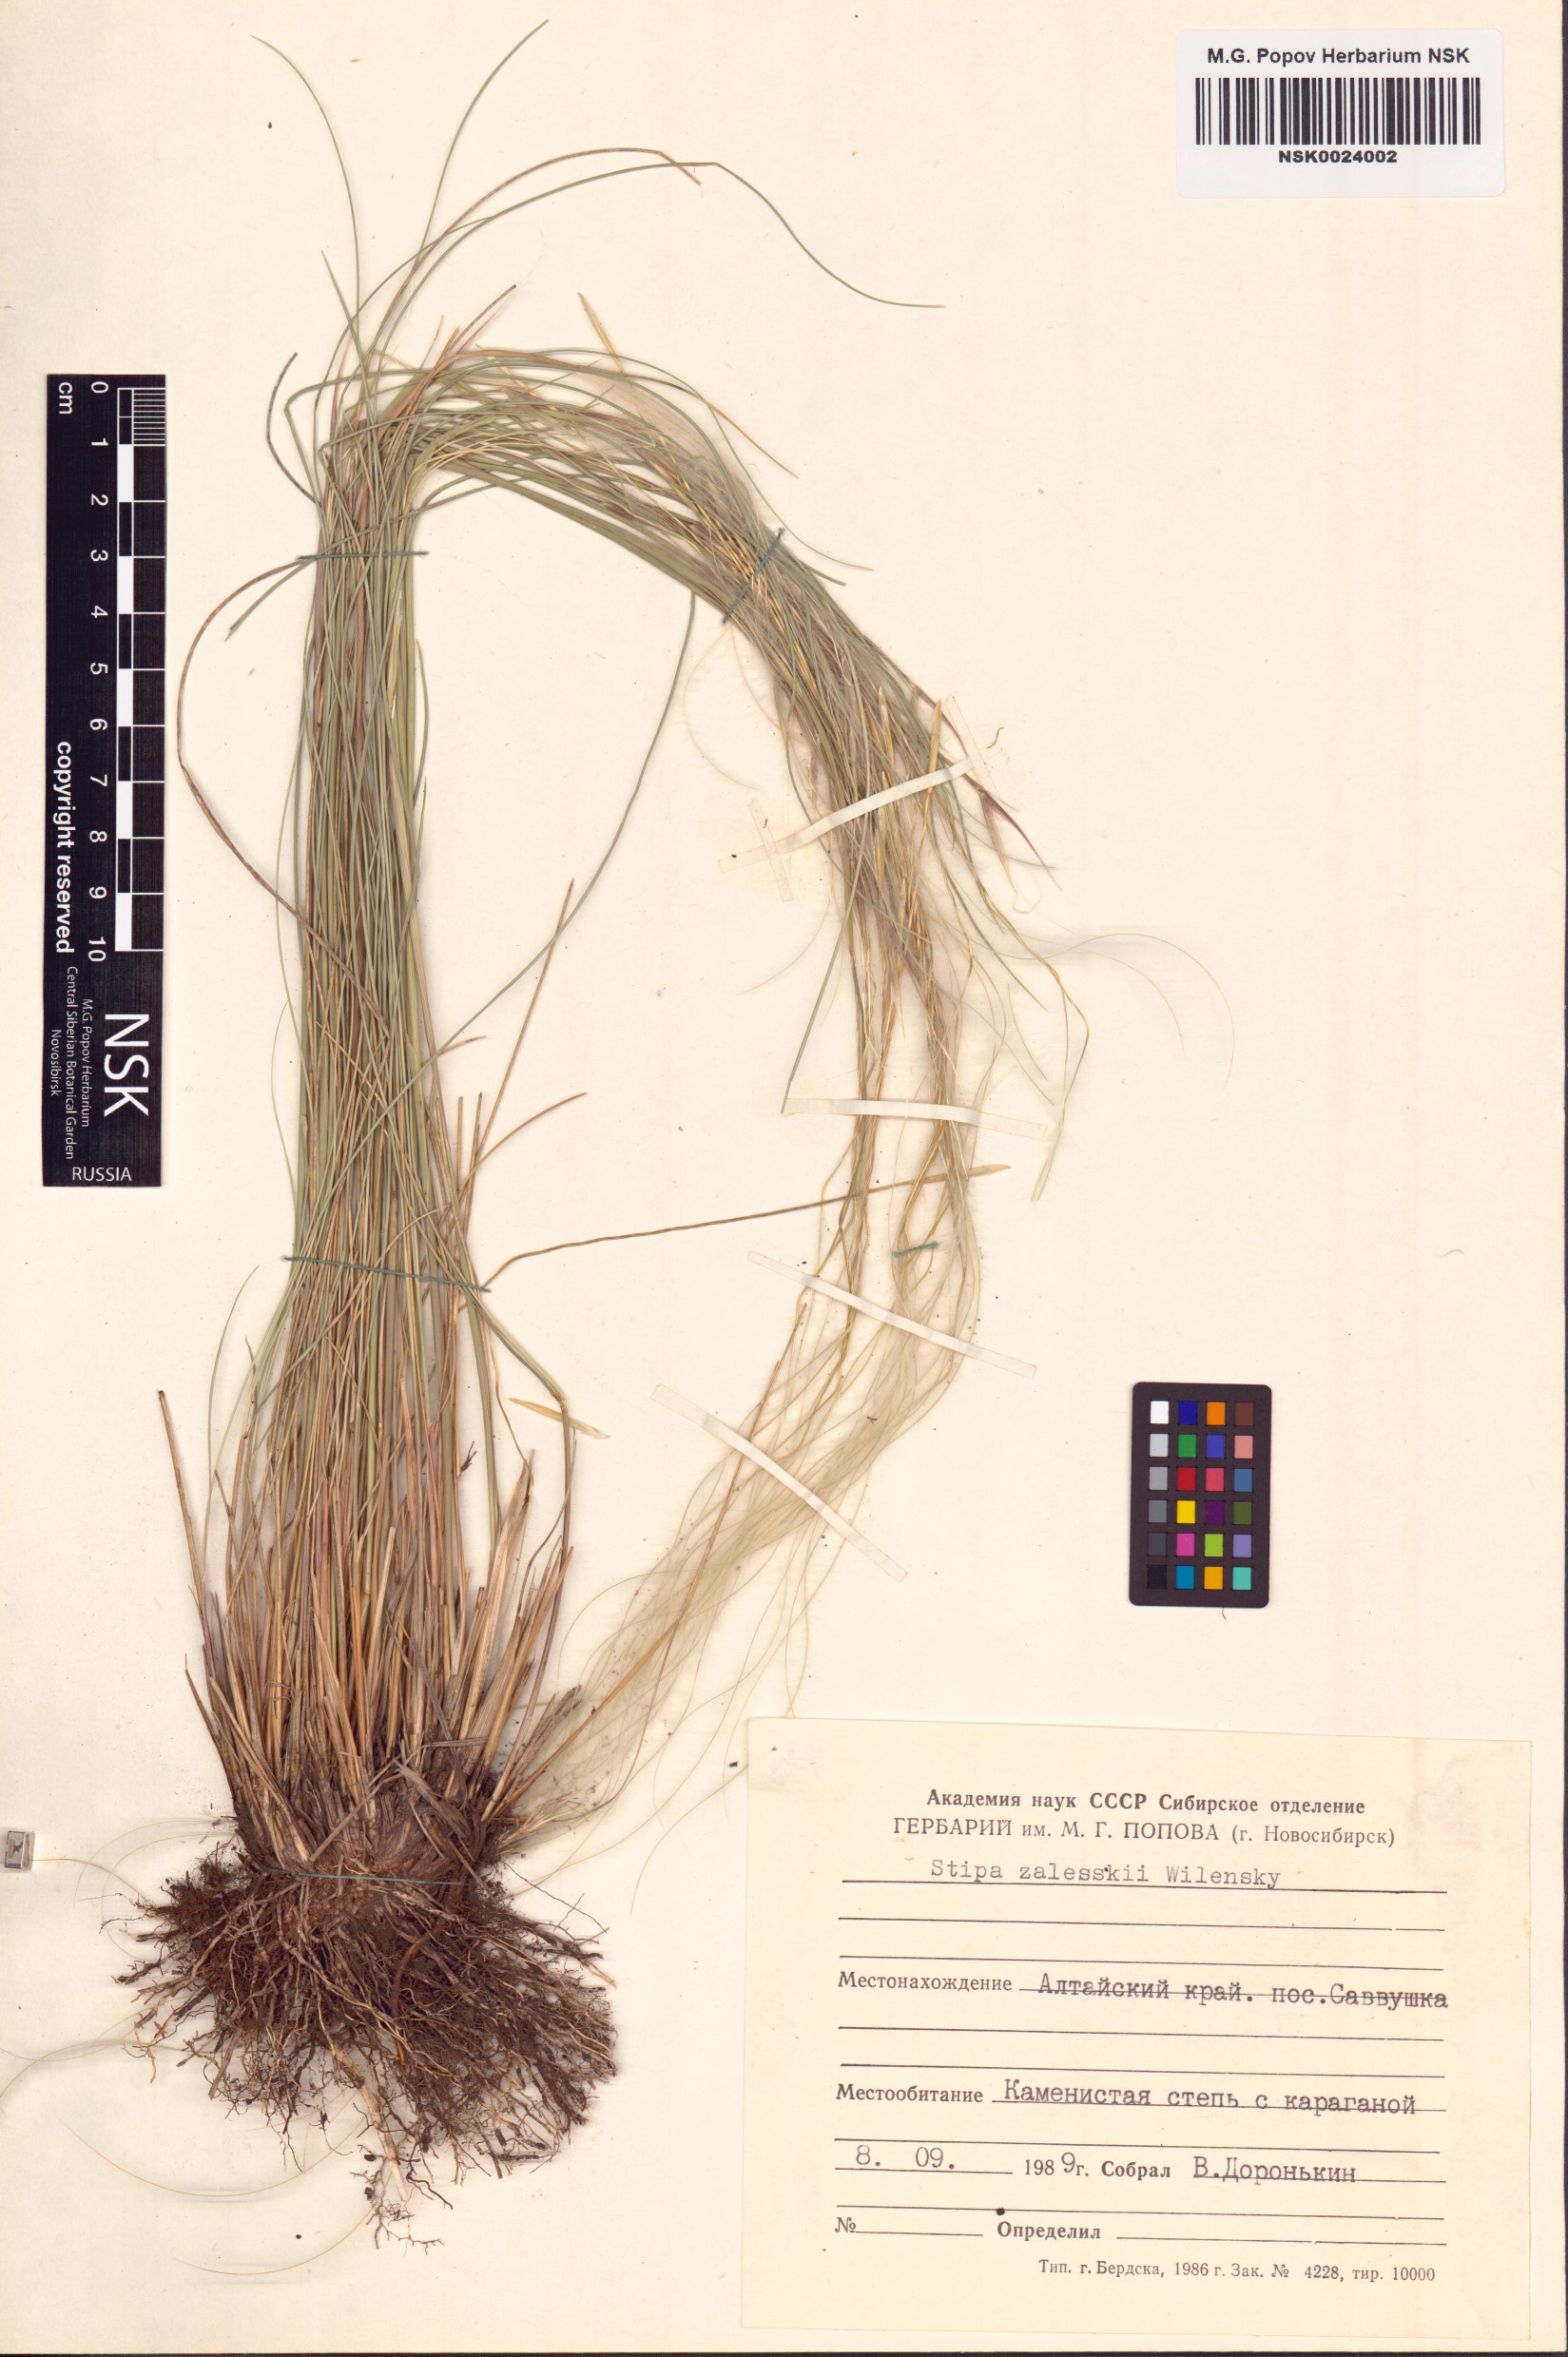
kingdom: Plantae
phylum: Tracheophyta
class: Liliopsida
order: Poales
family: Poaceae
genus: Stipa
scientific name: Stipa zalesskii
